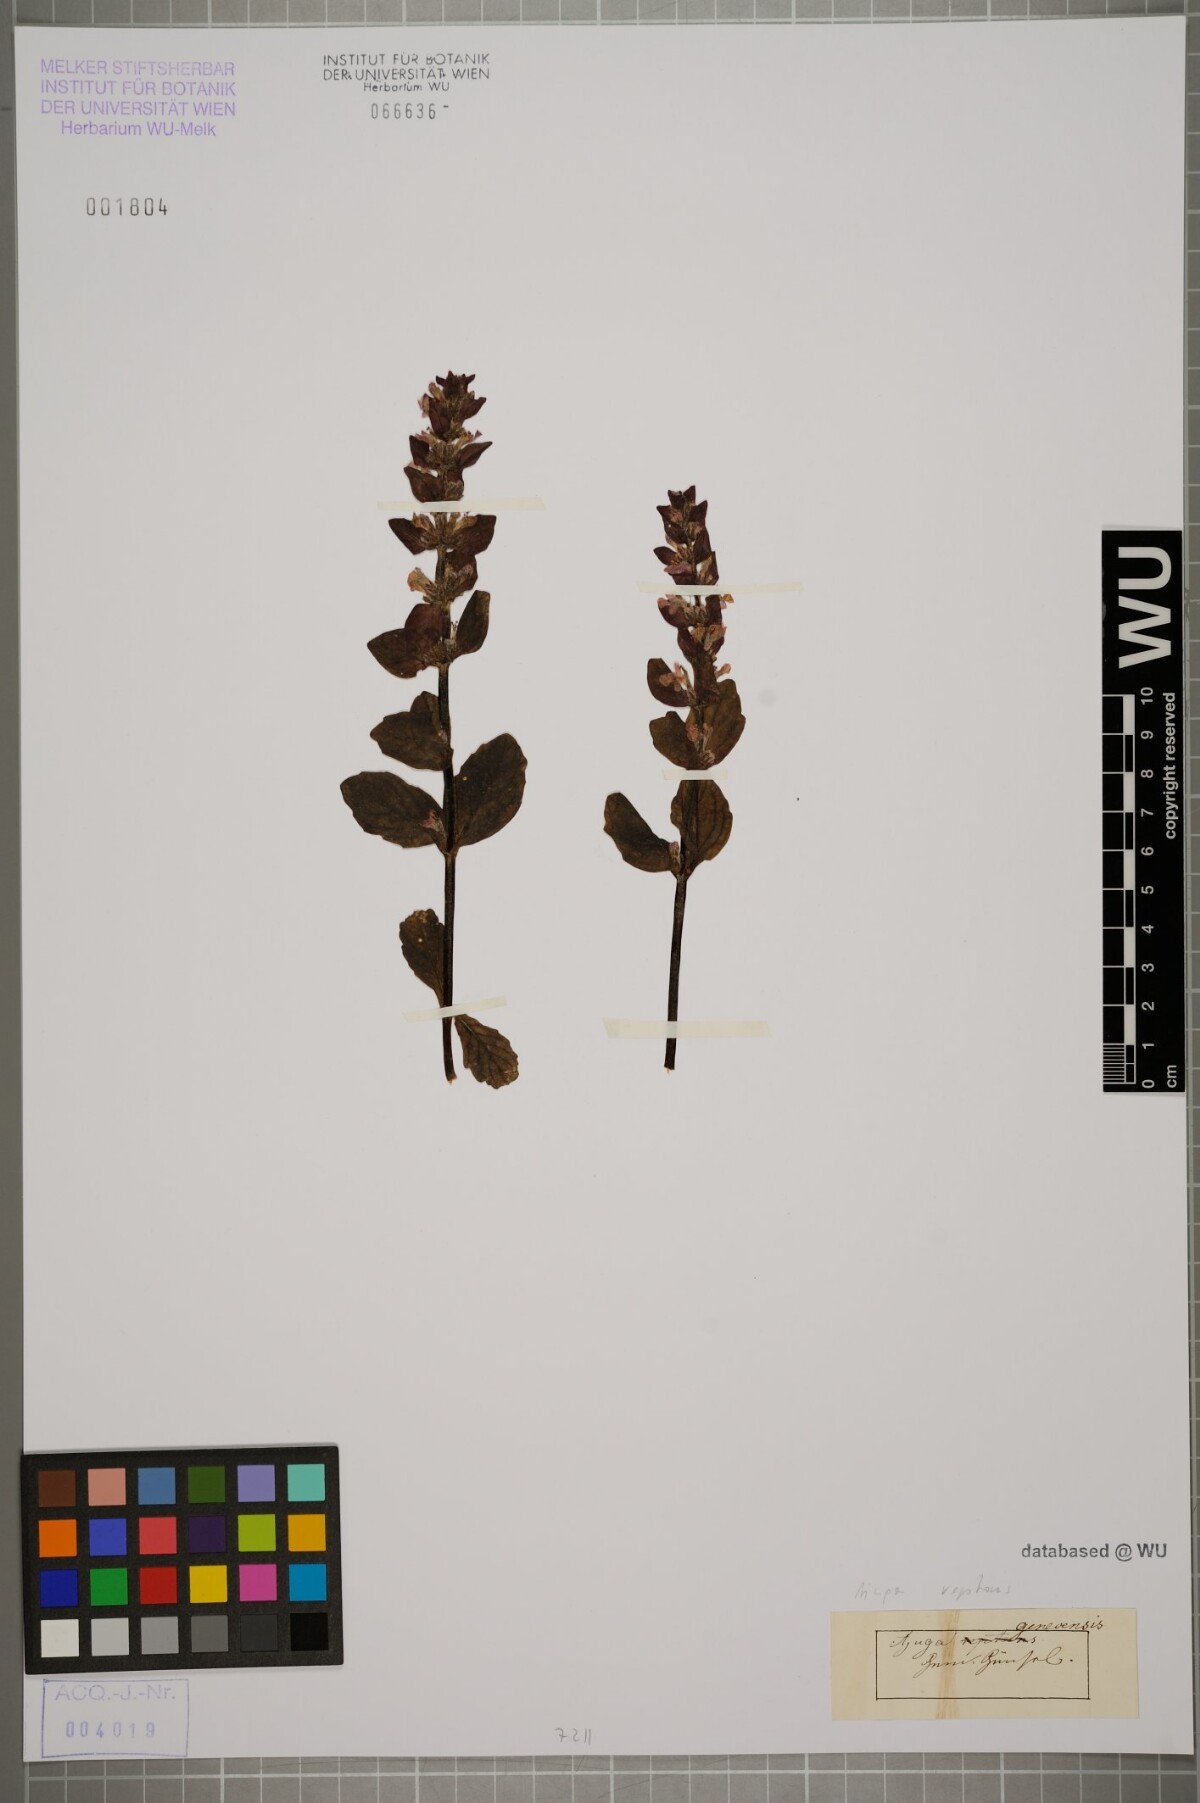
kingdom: Plantae
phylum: Tracheophyta
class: Magnoliopsida
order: Lamiales
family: Lamiaceae
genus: Ajuga
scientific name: Ajuga reptans
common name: Bugle
